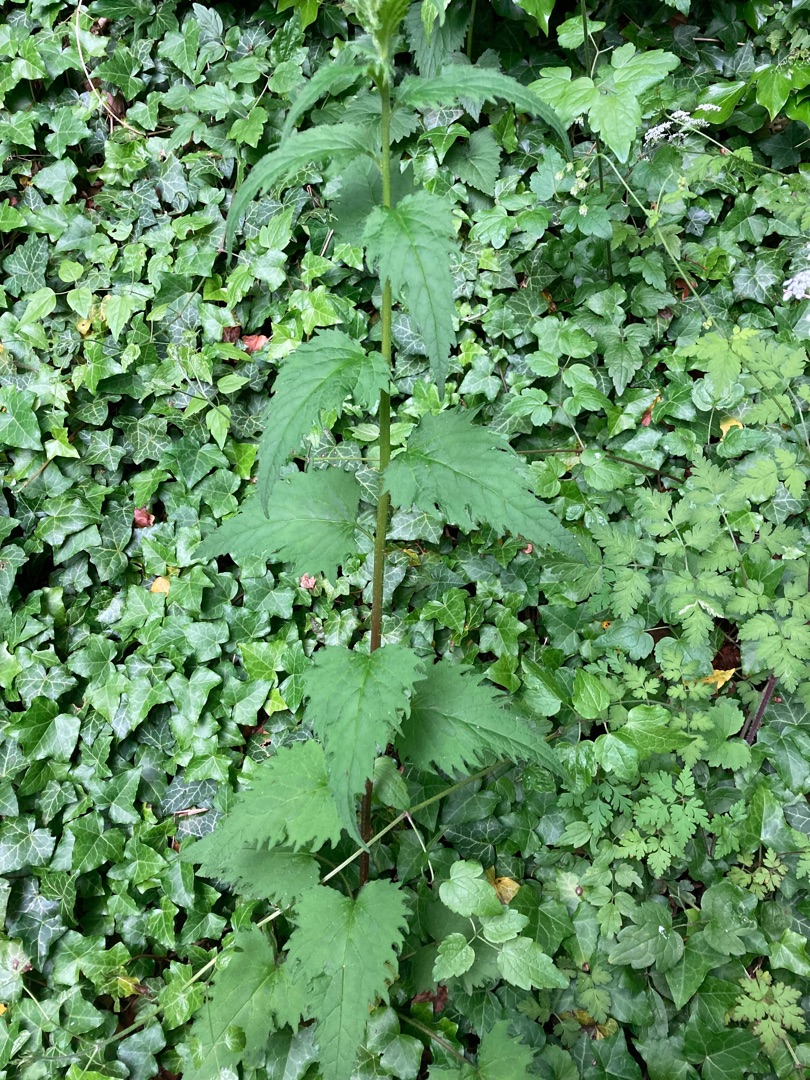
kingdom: Plantae
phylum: Tracheophyta
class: Magnoliopsida
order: Asterales
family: Campanulaceae
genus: Campanula
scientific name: Campanula trachelium
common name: Nælde-klokke
